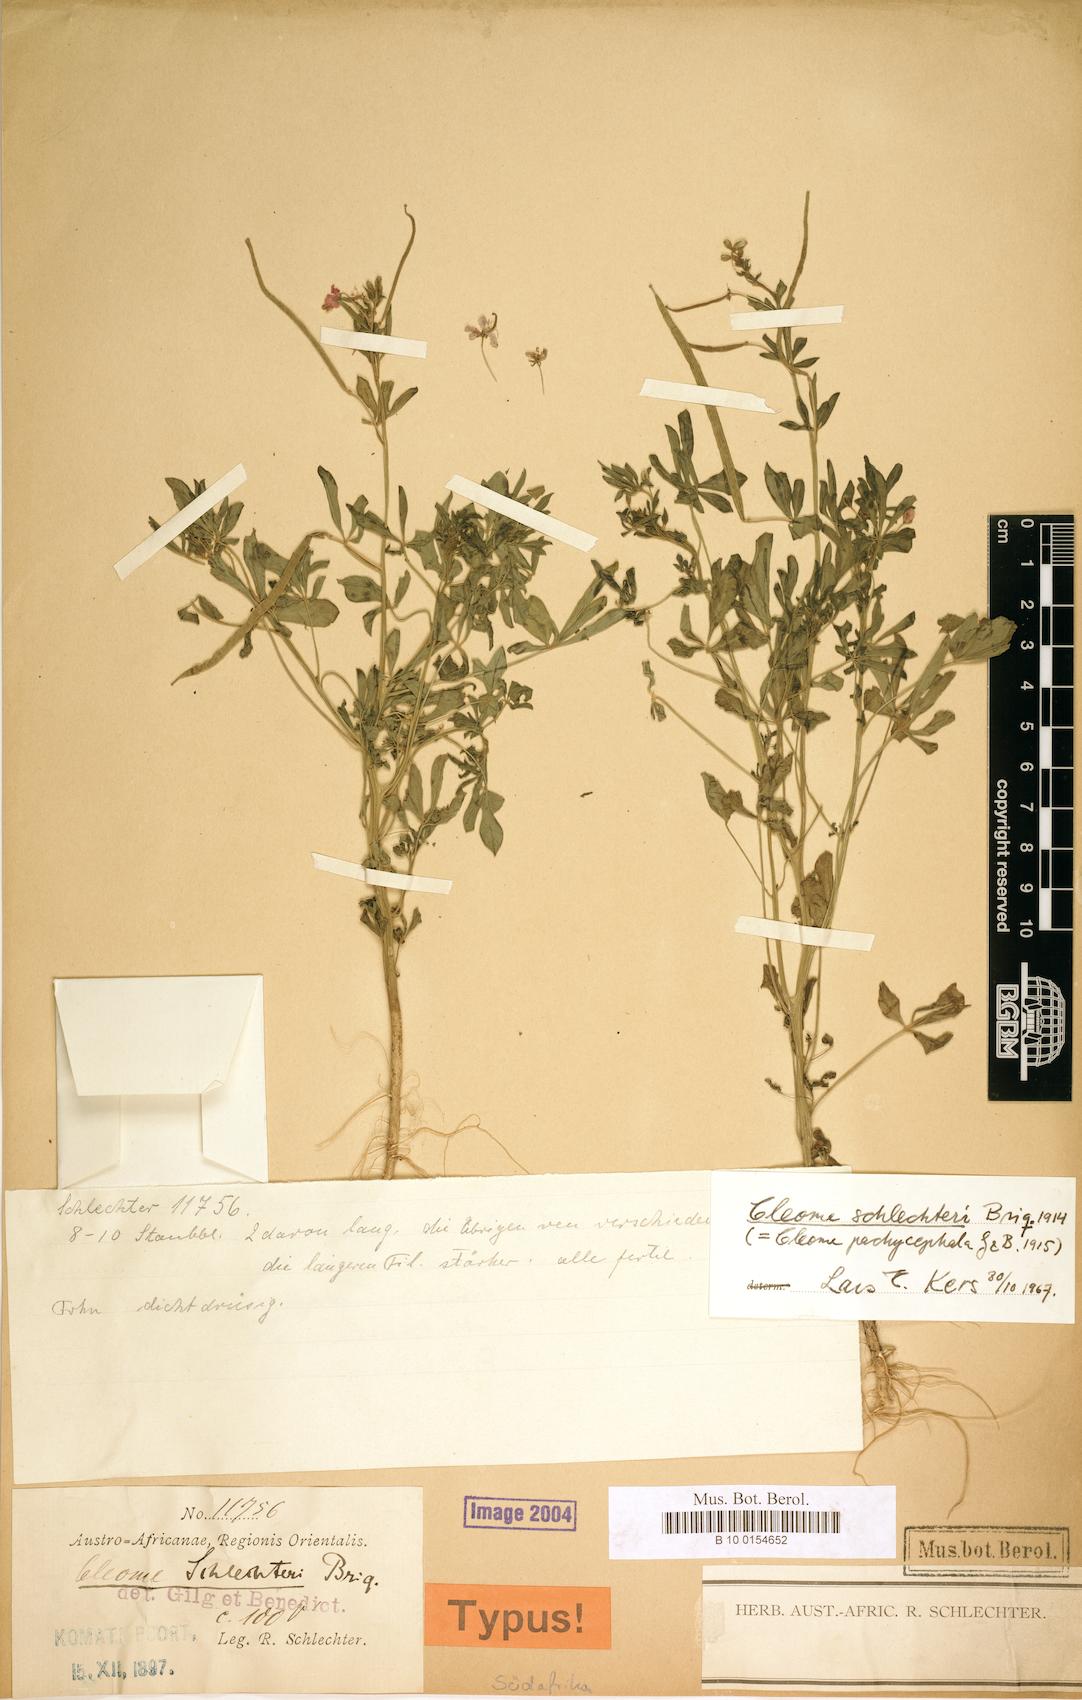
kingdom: Plantae
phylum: Tracheophyta
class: Magnoliopsida
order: Brassicales
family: Cleomaceae
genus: Sieruela
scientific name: Sieruela schlechteri
